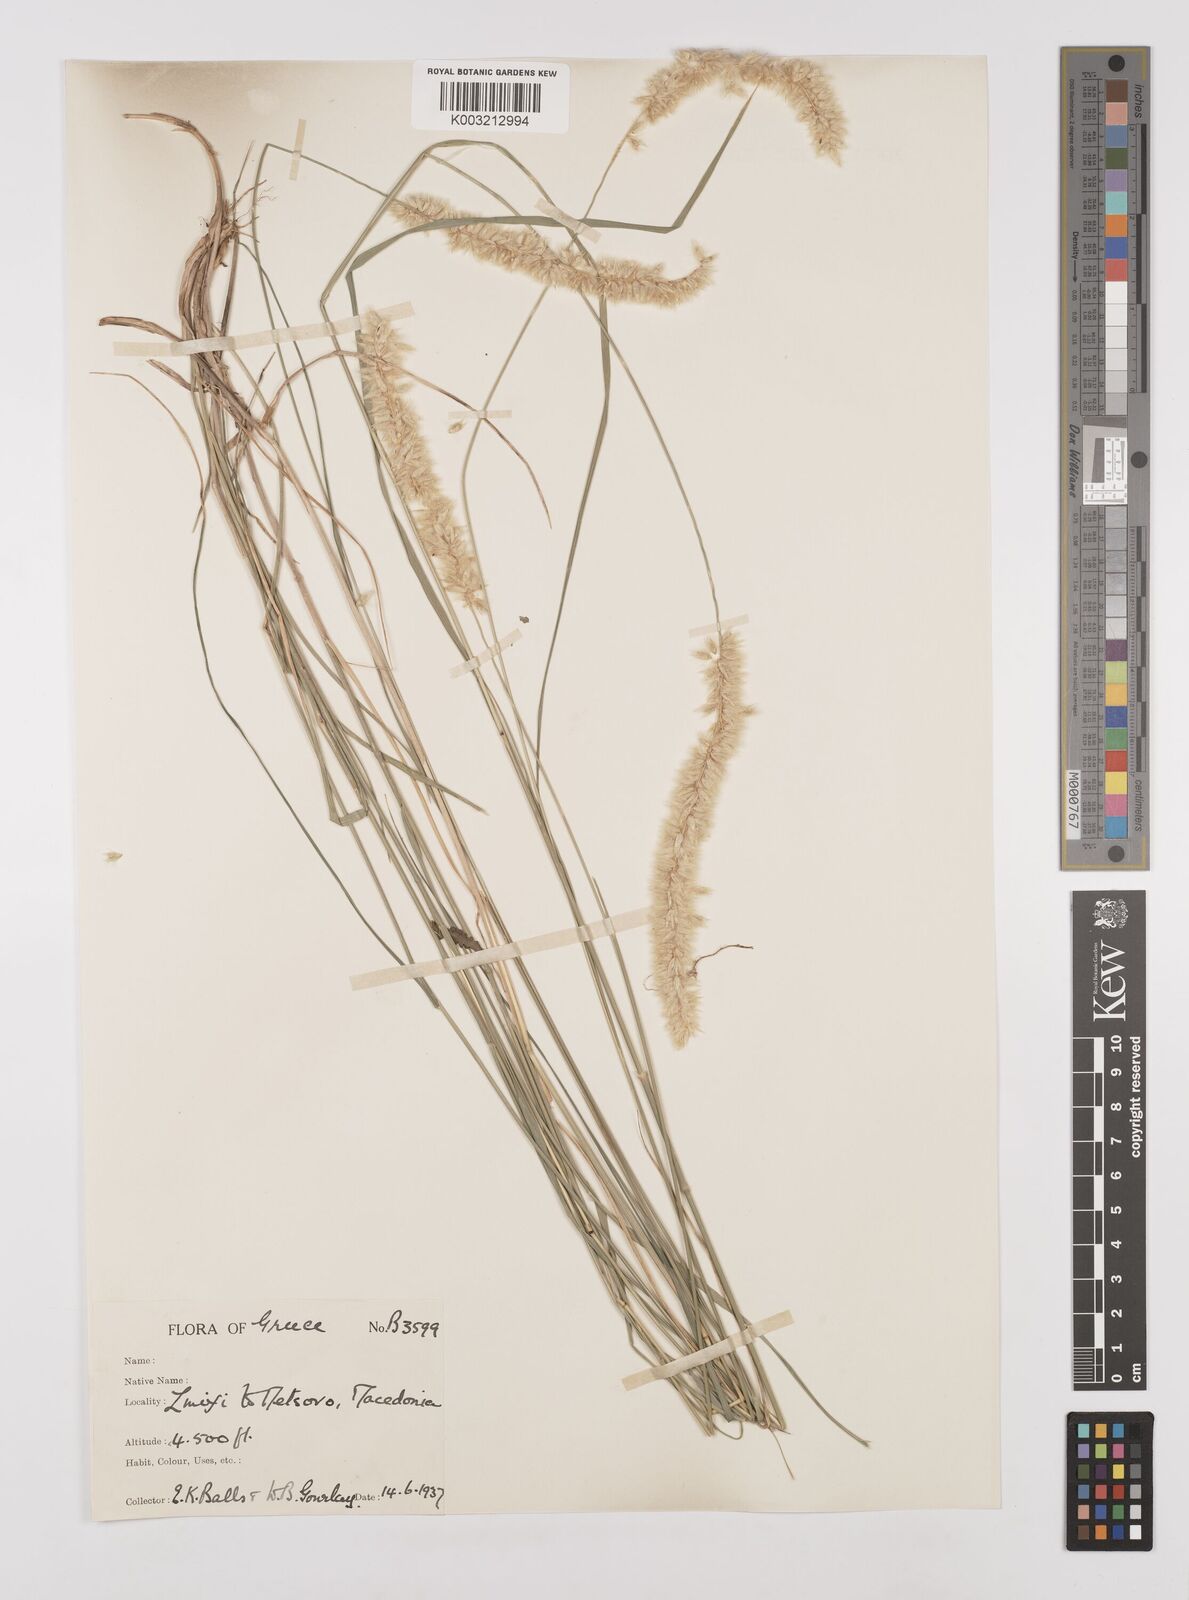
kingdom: Plantae
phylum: Tracheophyta
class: Liliopsida
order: Poales
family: Poaceae
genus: Melica
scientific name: Melica transsilvanica
